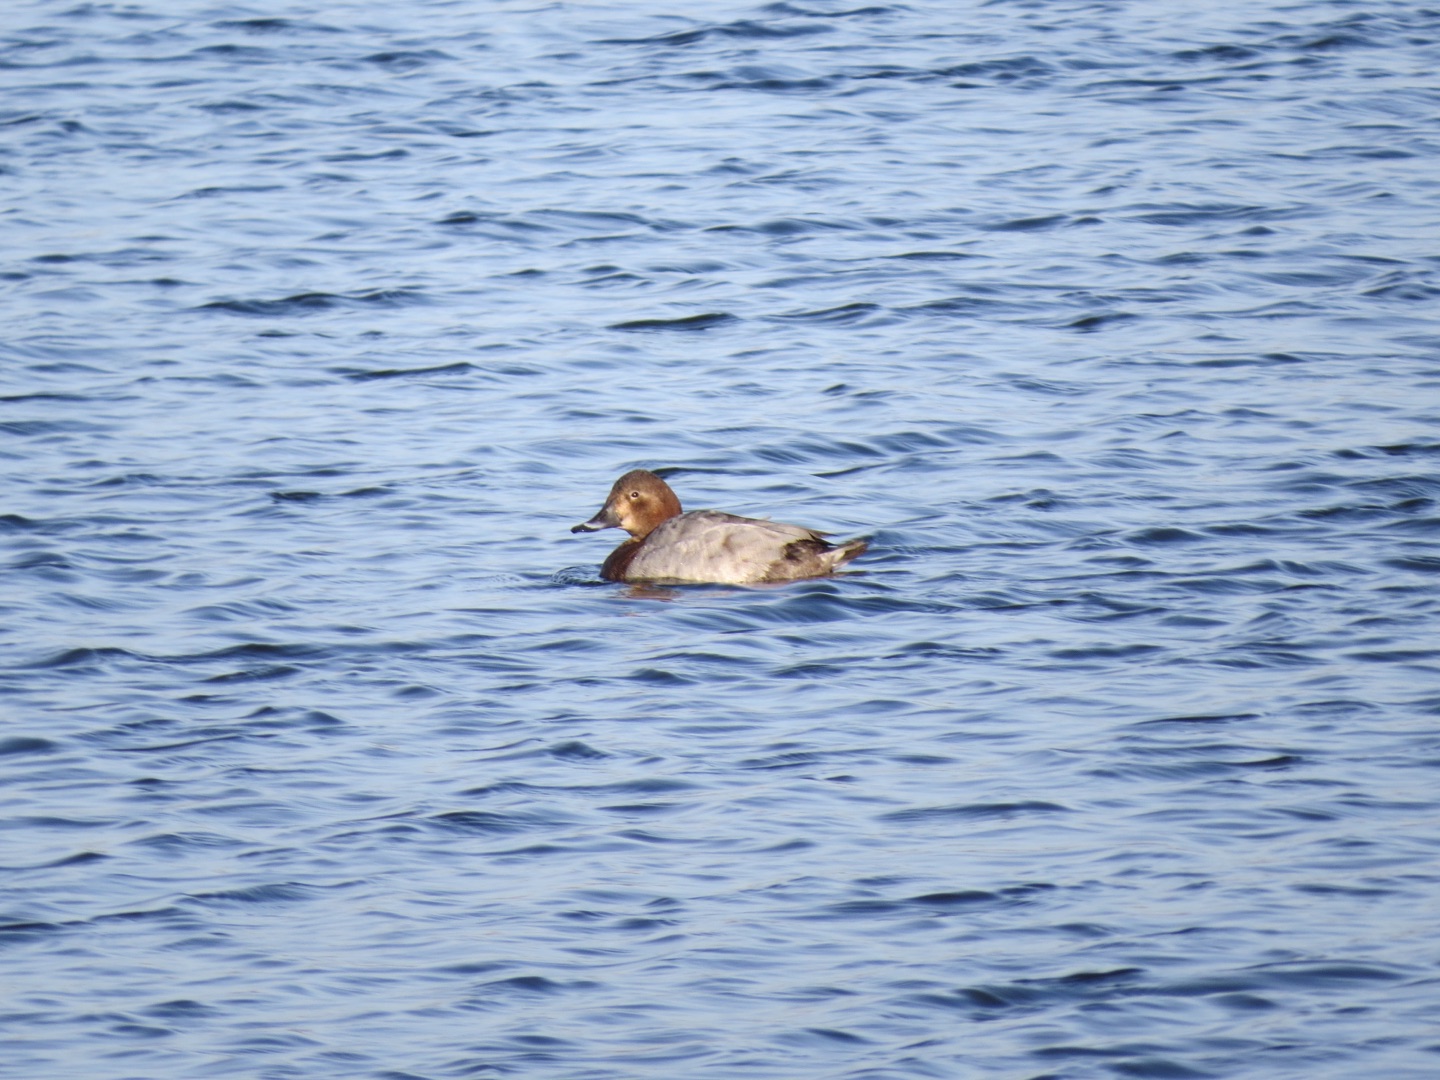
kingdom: Animalia
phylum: Chordata
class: Aves
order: Anseriformes
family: Anatidae
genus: Aythya
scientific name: Aythya ferina
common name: Taffeland
